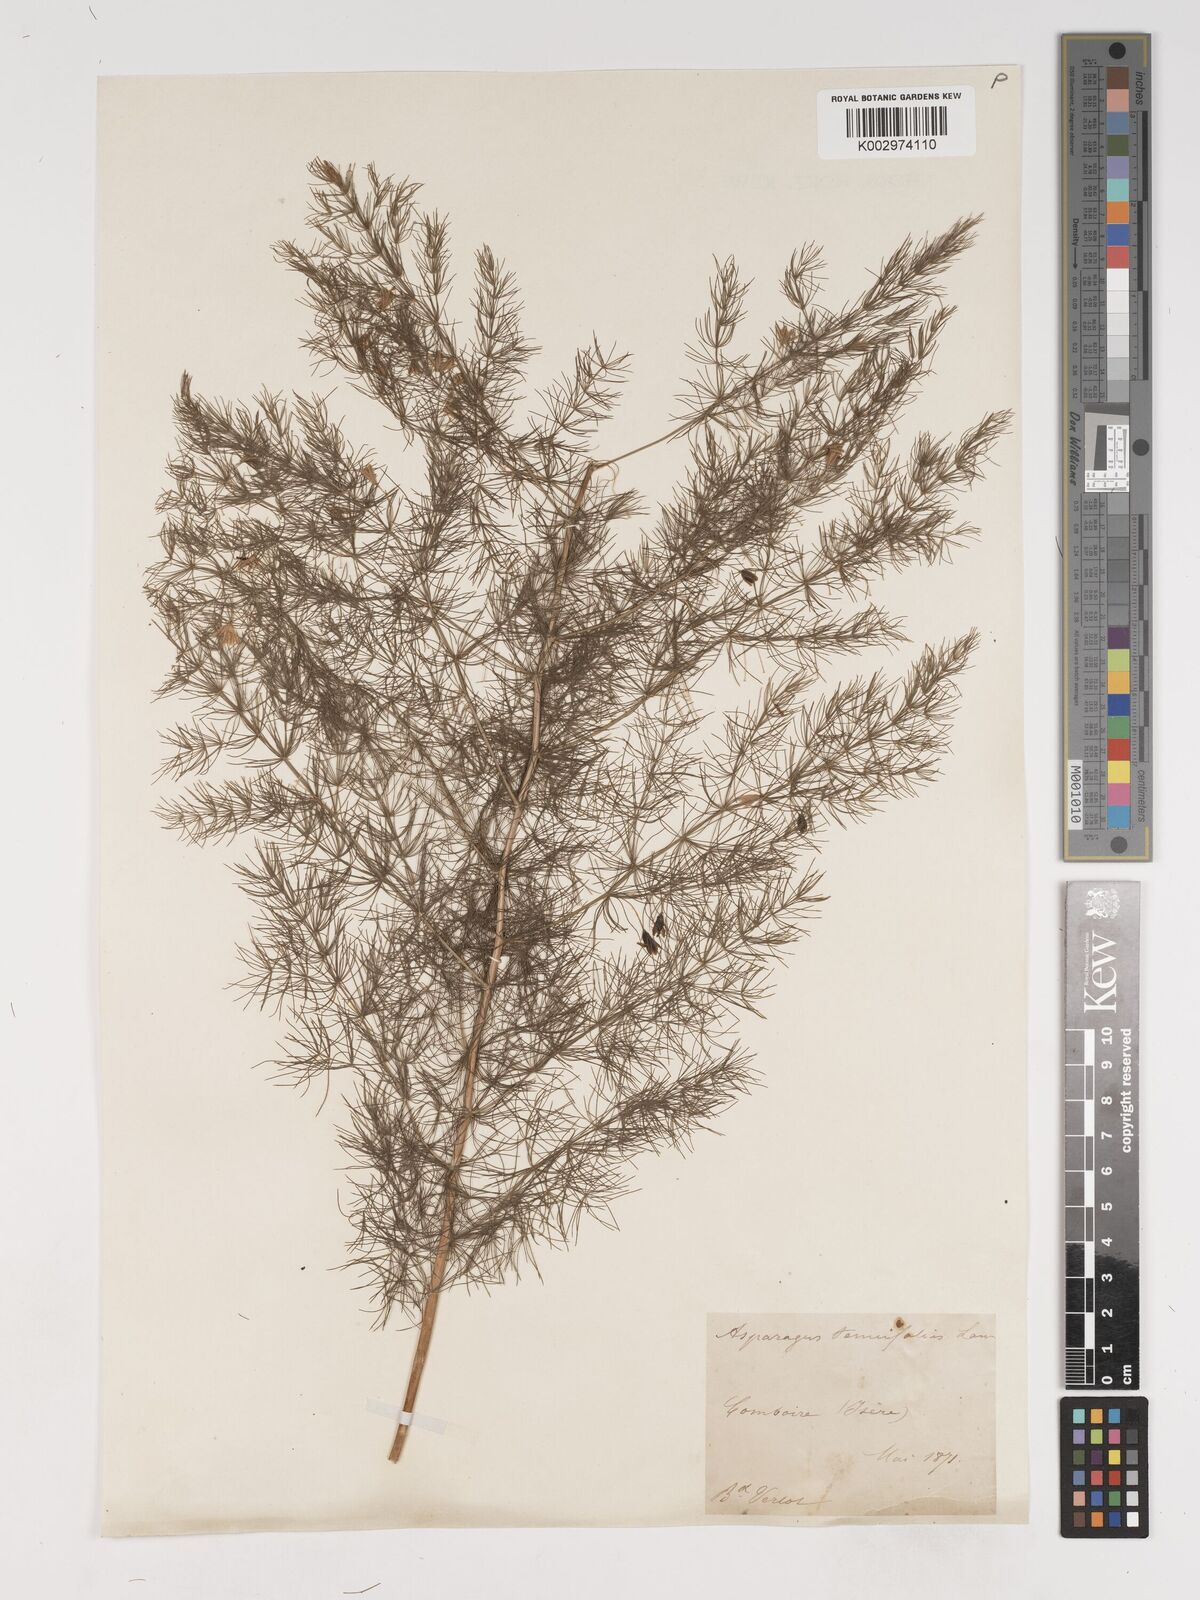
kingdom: Plantae
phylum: Tracheophyta
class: Liliopsida
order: Asparagales
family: Asparagaceae
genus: Asparagus
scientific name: Asparagus tenuifolius
